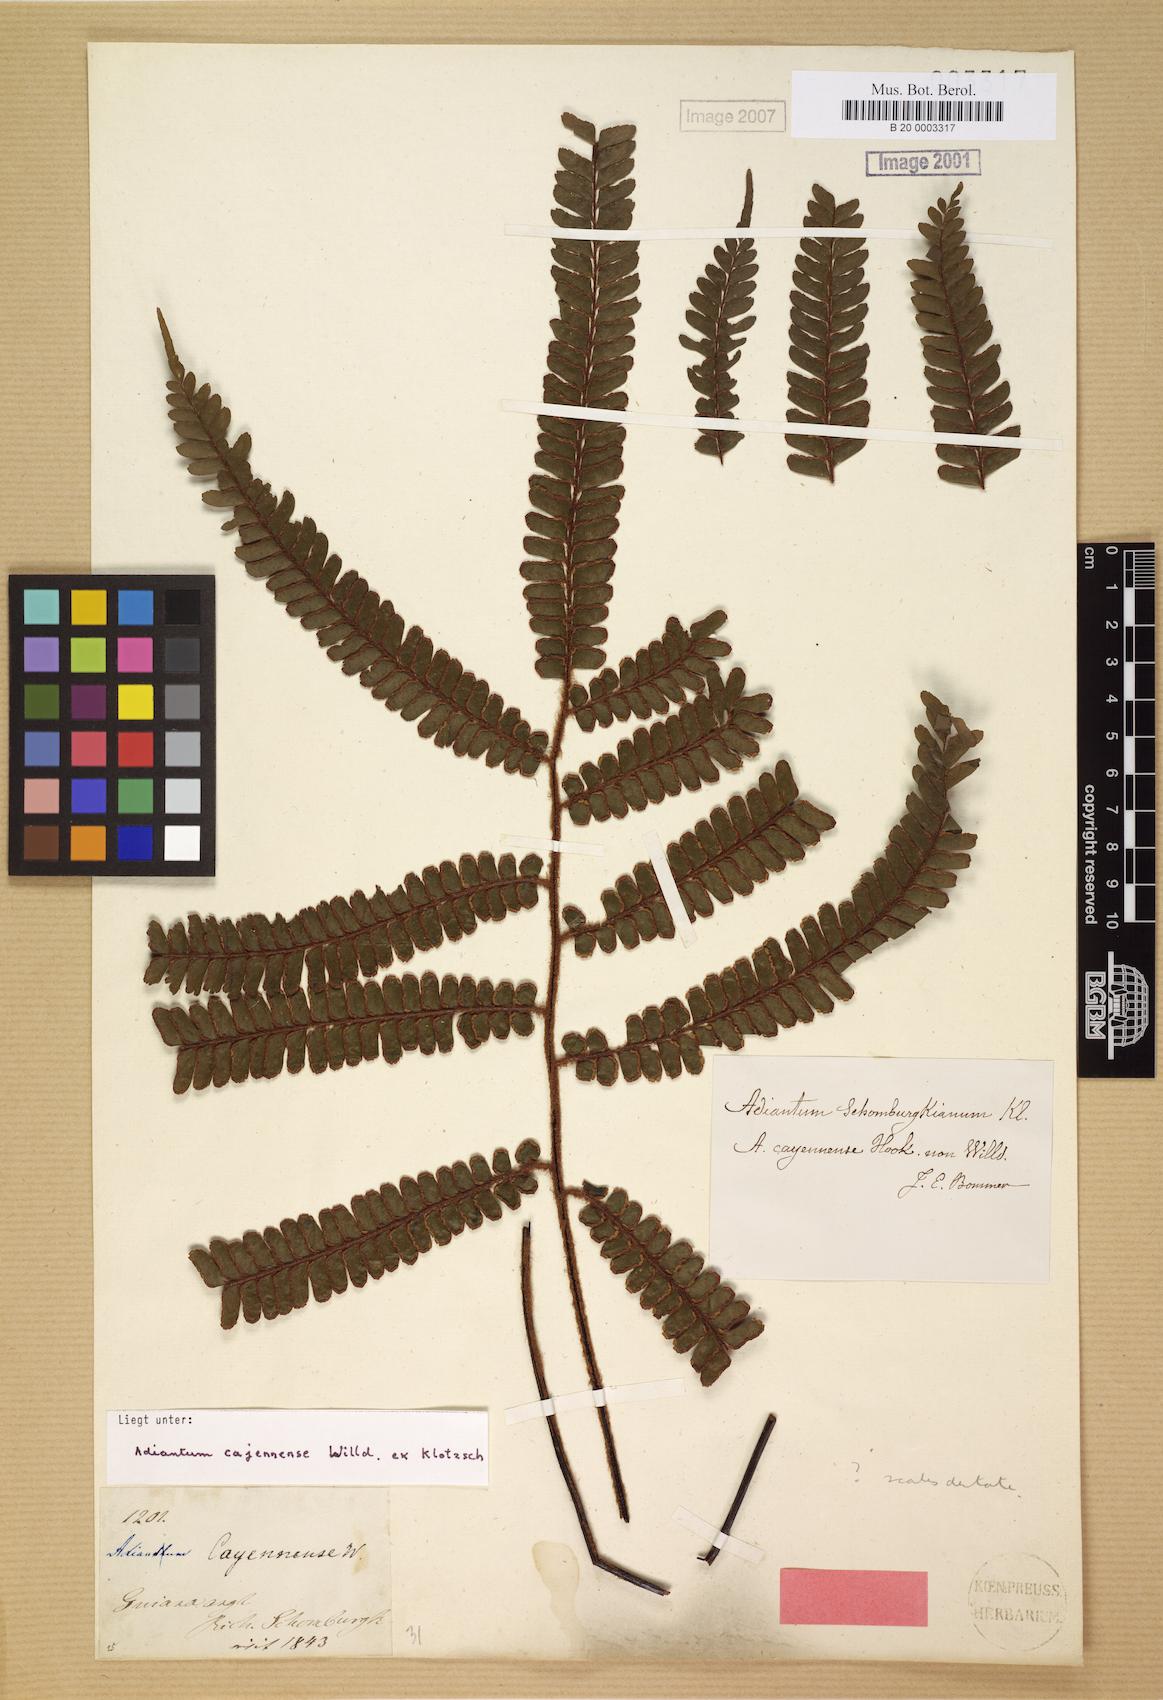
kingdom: Plantae
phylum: Tracheophyta
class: Polypodiopsida
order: Polypodiales
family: Pteridaceae
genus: Adiantum
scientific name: Adiantum paraense
